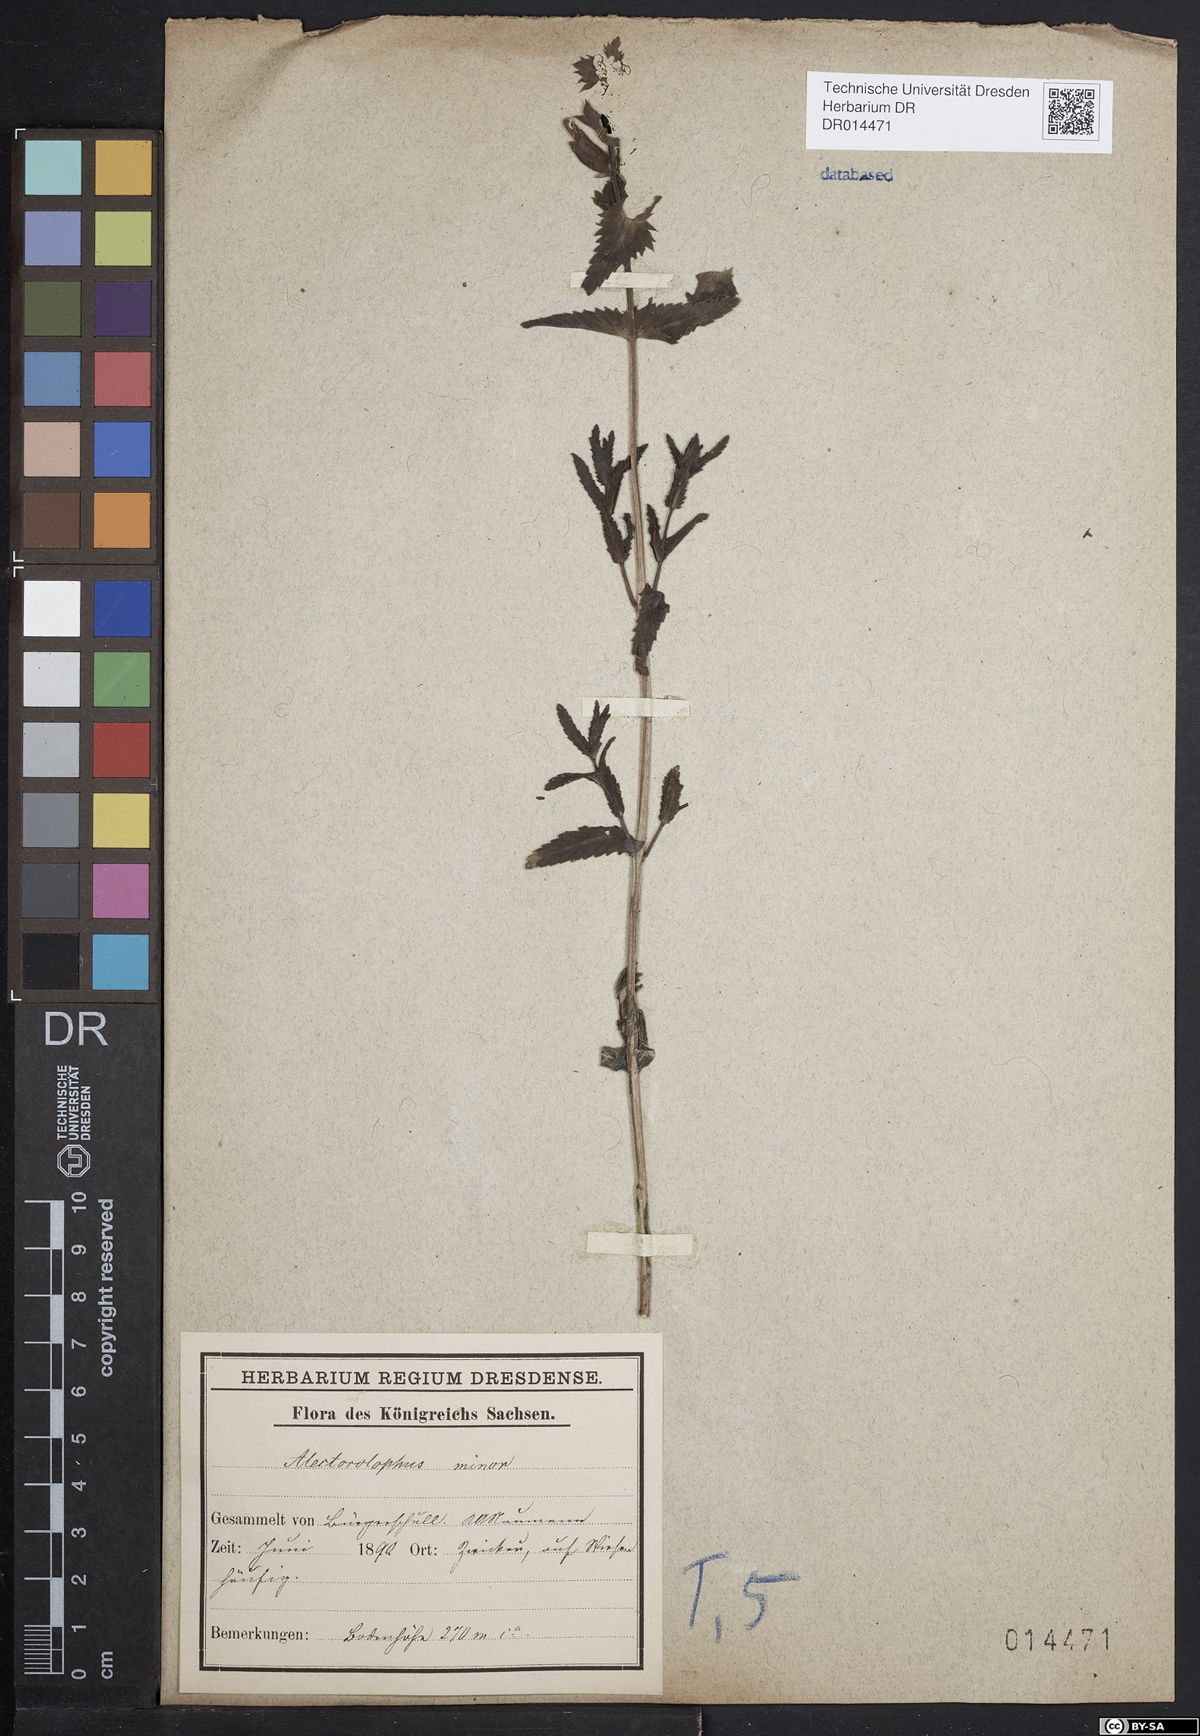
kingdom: Plantae
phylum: Tracheophyta
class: Magnoliopsida
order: Lamiales
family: Orobanchaceae
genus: Rhinanthus
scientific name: Rhinanthus minor
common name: Yellow-rattle
